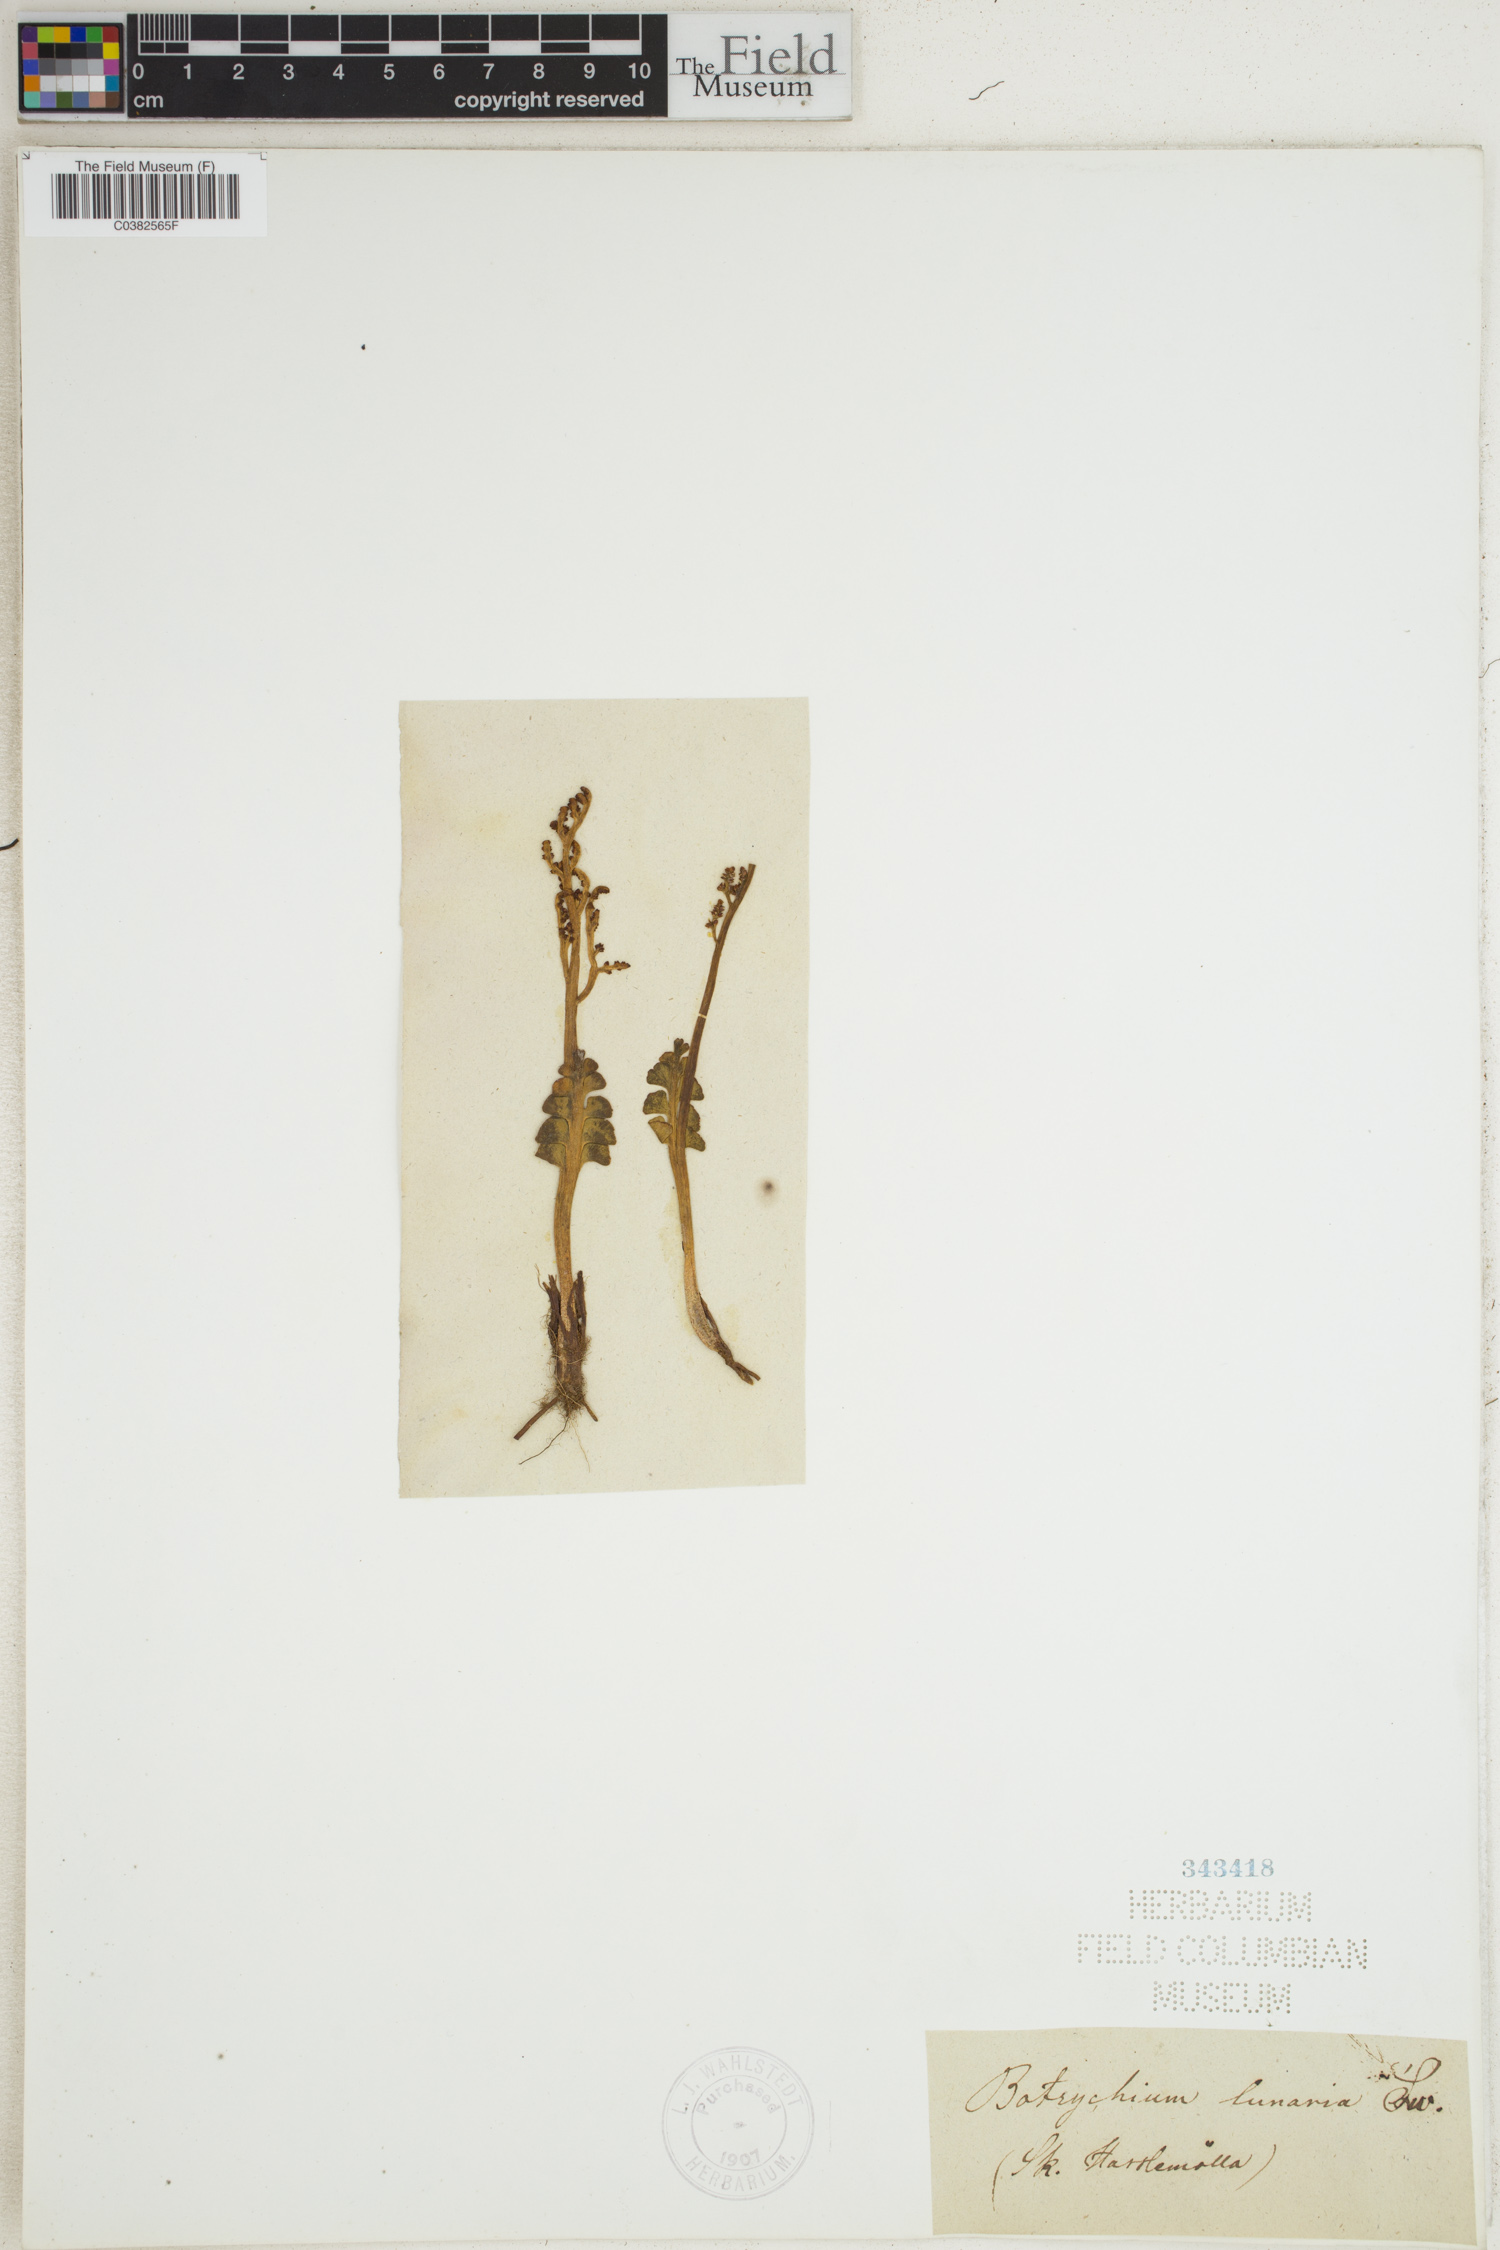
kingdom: Plantae
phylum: Tracheophyta
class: Polypodiopsida
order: Ophioglossales
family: Ophioglossaceae
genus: Botrychium
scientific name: Botrychium lunaria
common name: Moonwort
